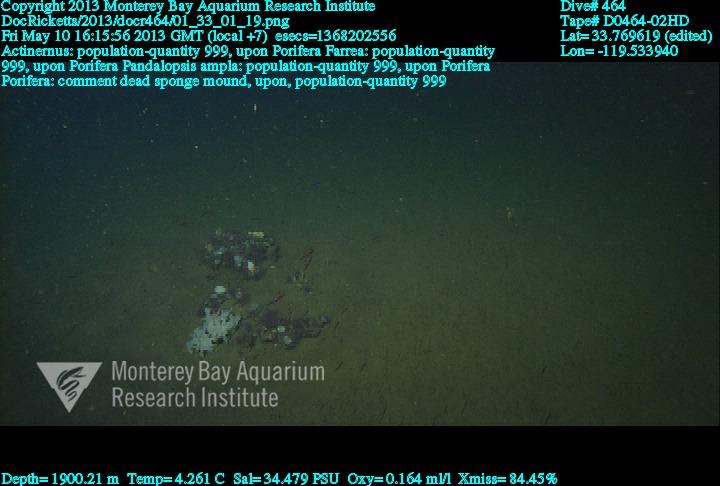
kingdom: Animalia
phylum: Porifera
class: Hexactinellida
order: Sceptrulophora
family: Farreidae
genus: Farrea
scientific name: Farrea
